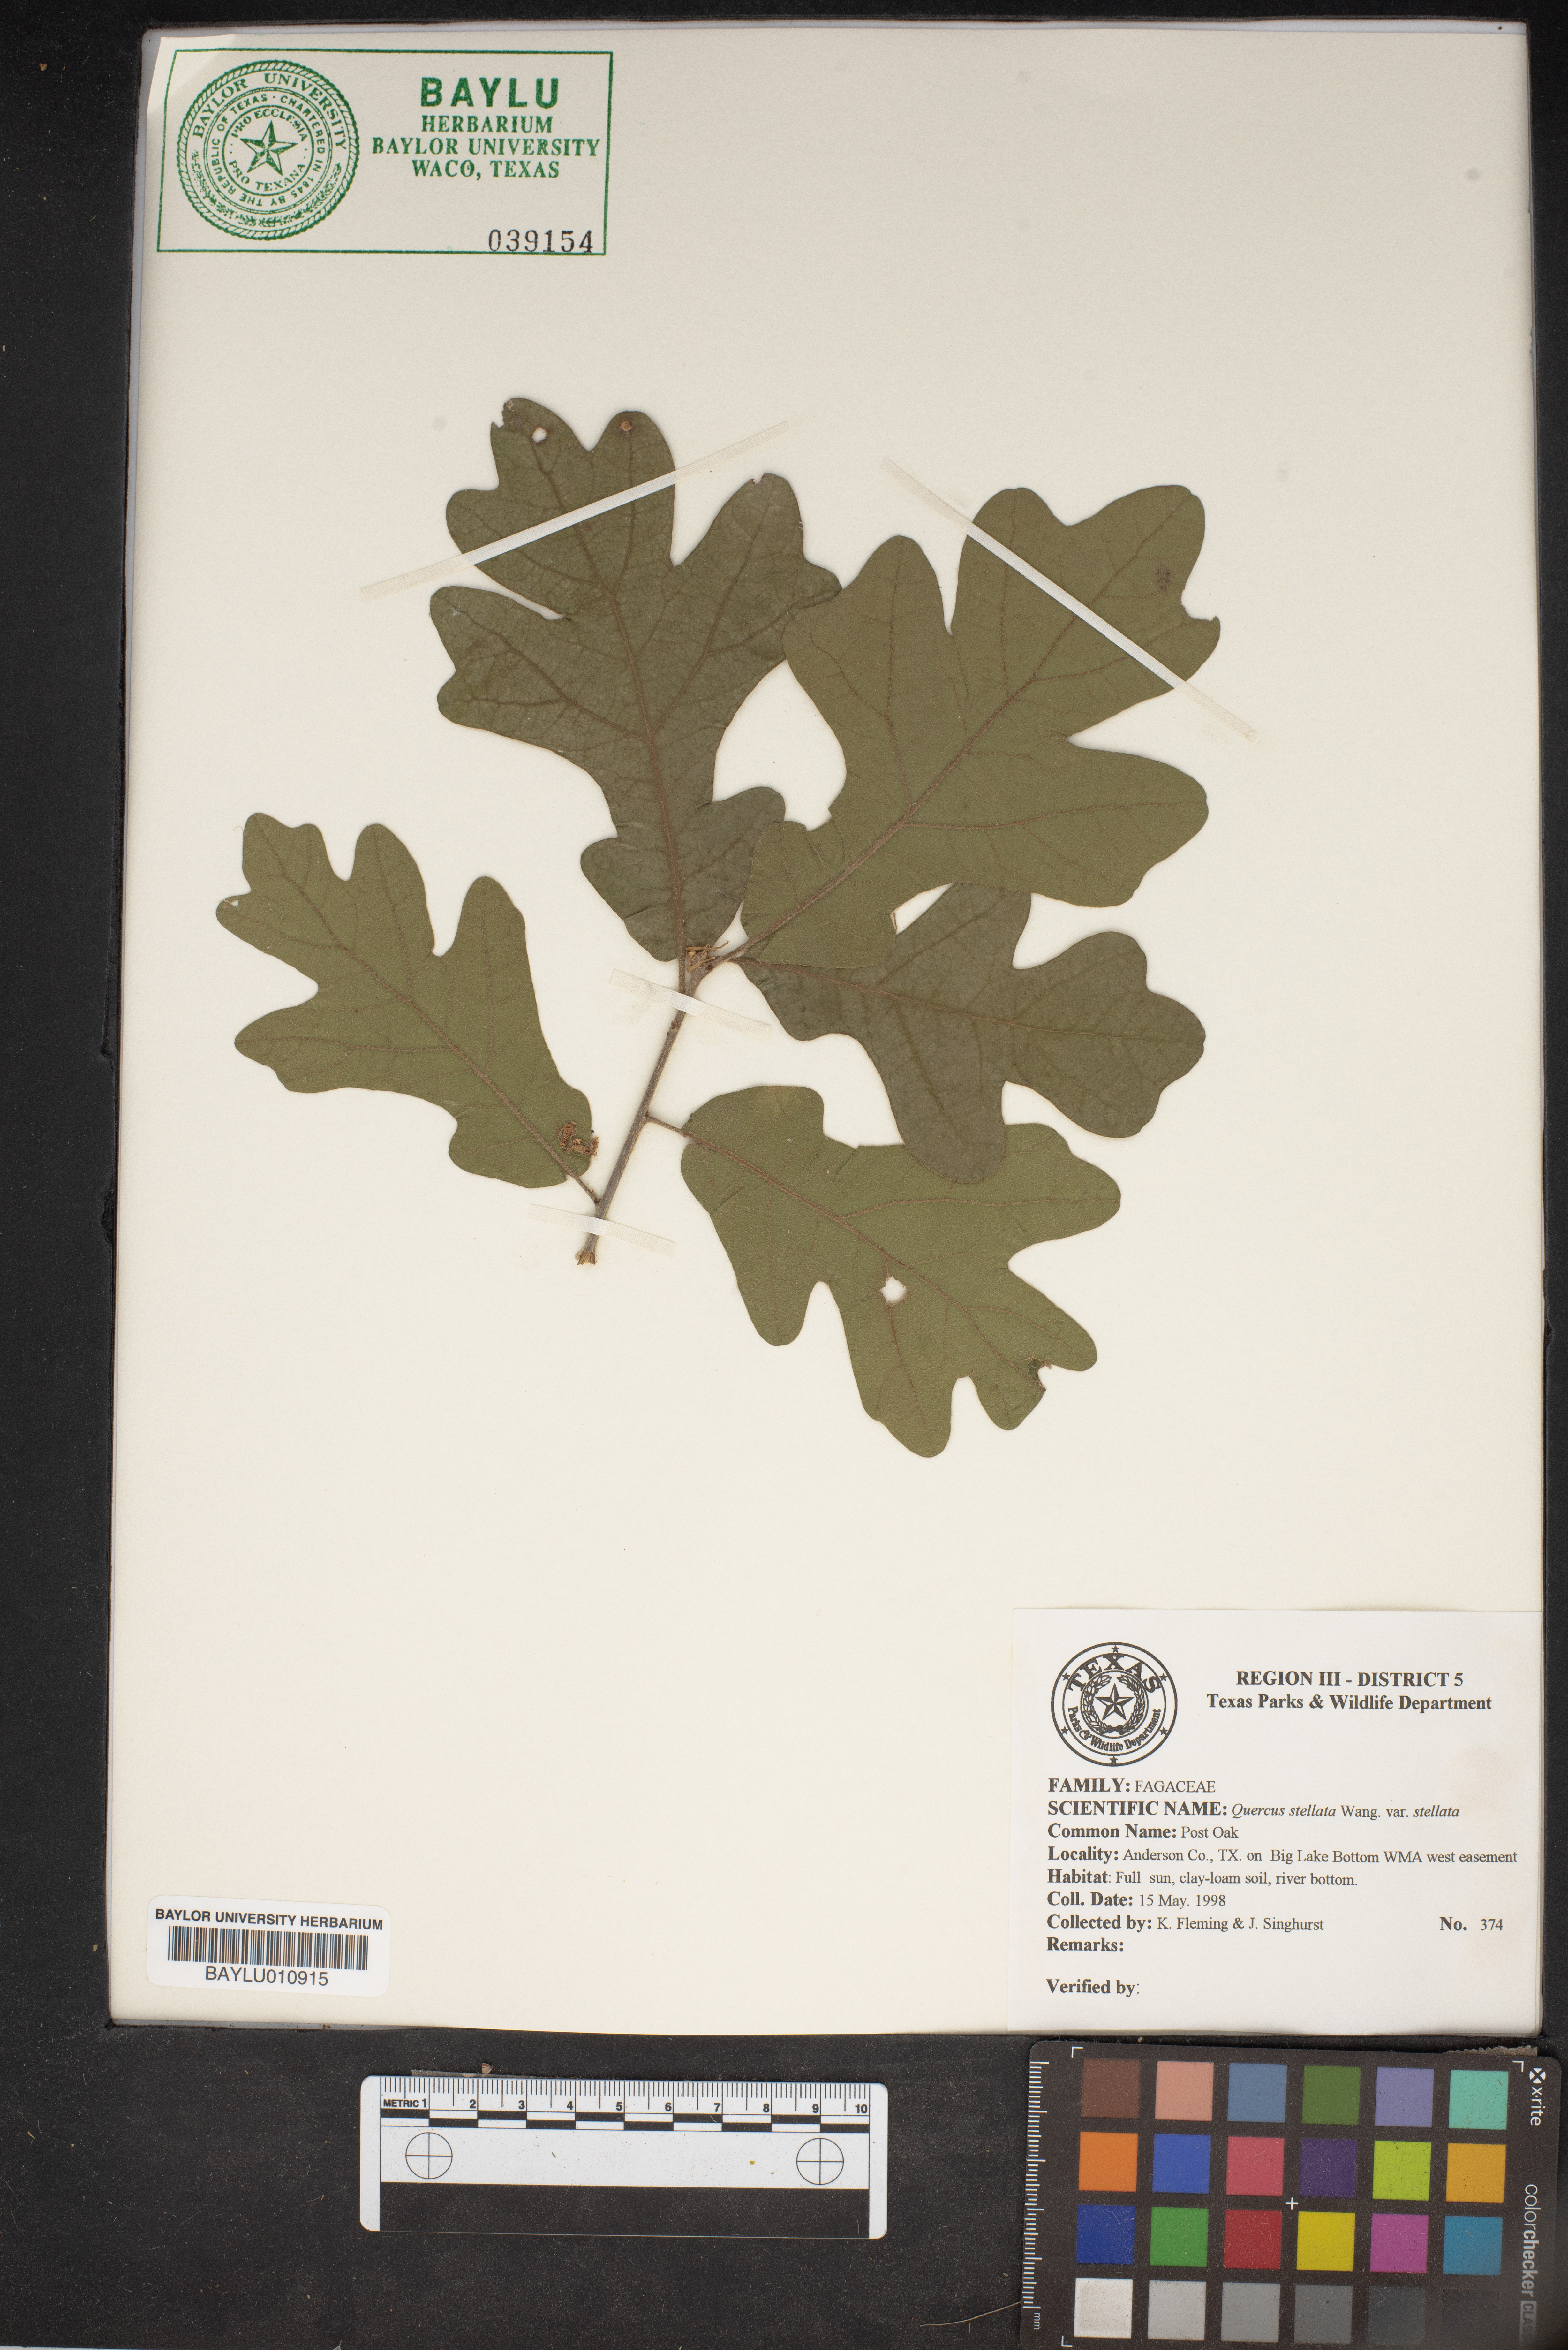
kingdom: Plantae
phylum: Tracheophyta
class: Magnoliopsida
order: Fagales
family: Fagaceae
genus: Quercus
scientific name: Quercus stellata
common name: Post oak
